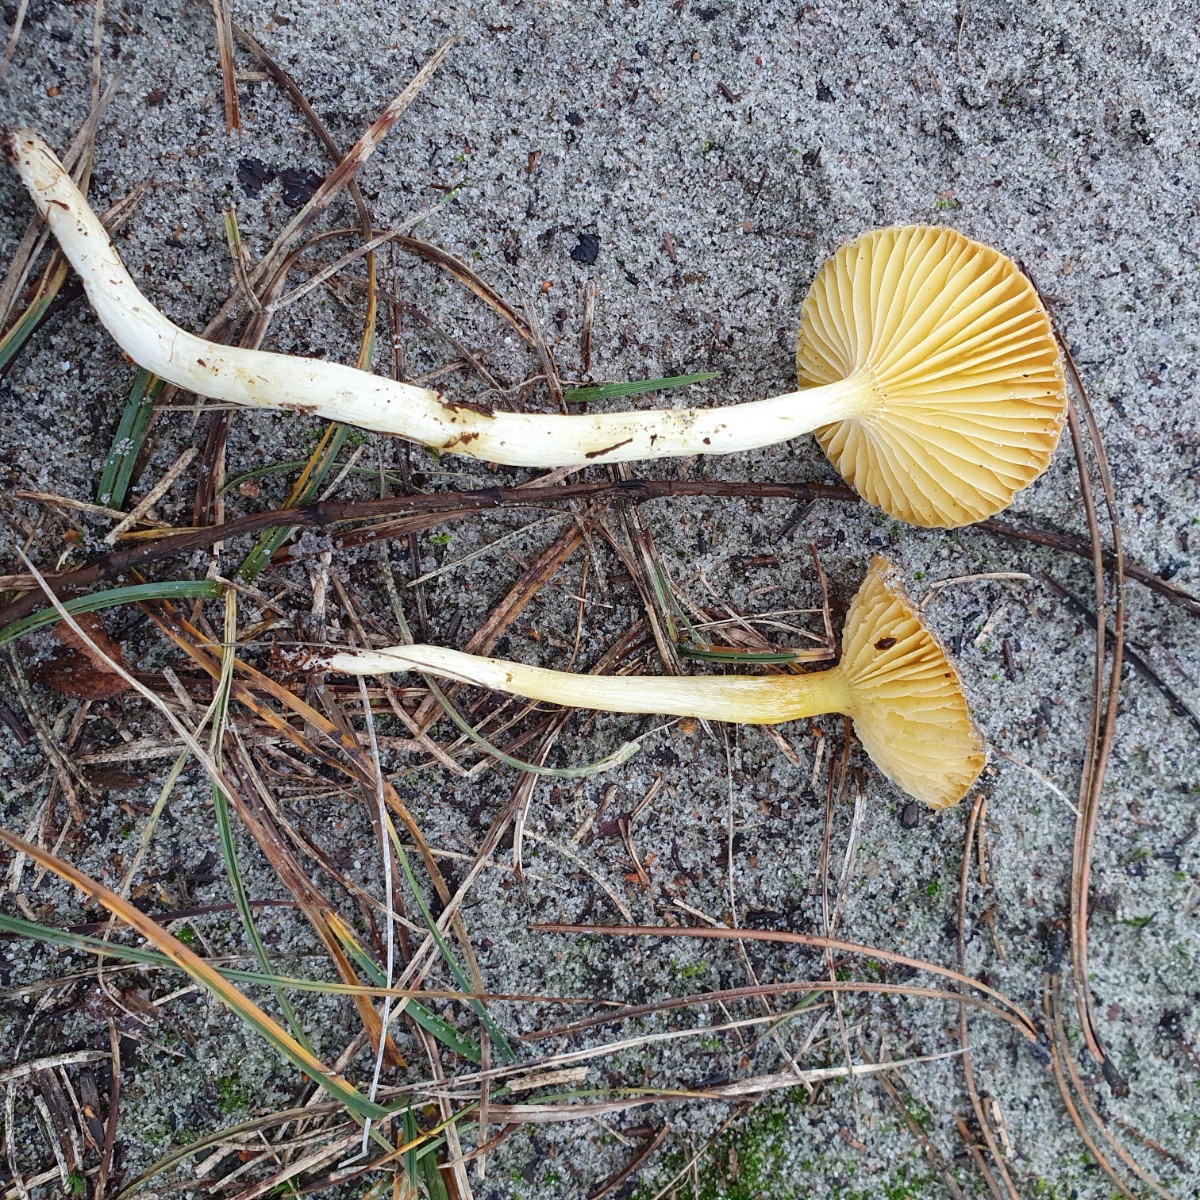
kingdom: Fungi
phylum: Basidiomycota
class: Agaricomycetes
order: Agaricales
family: Hygrophoraceae
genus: Hygrophorus
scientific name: Hygrophorus hypothejus
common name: frost-sneglehat
